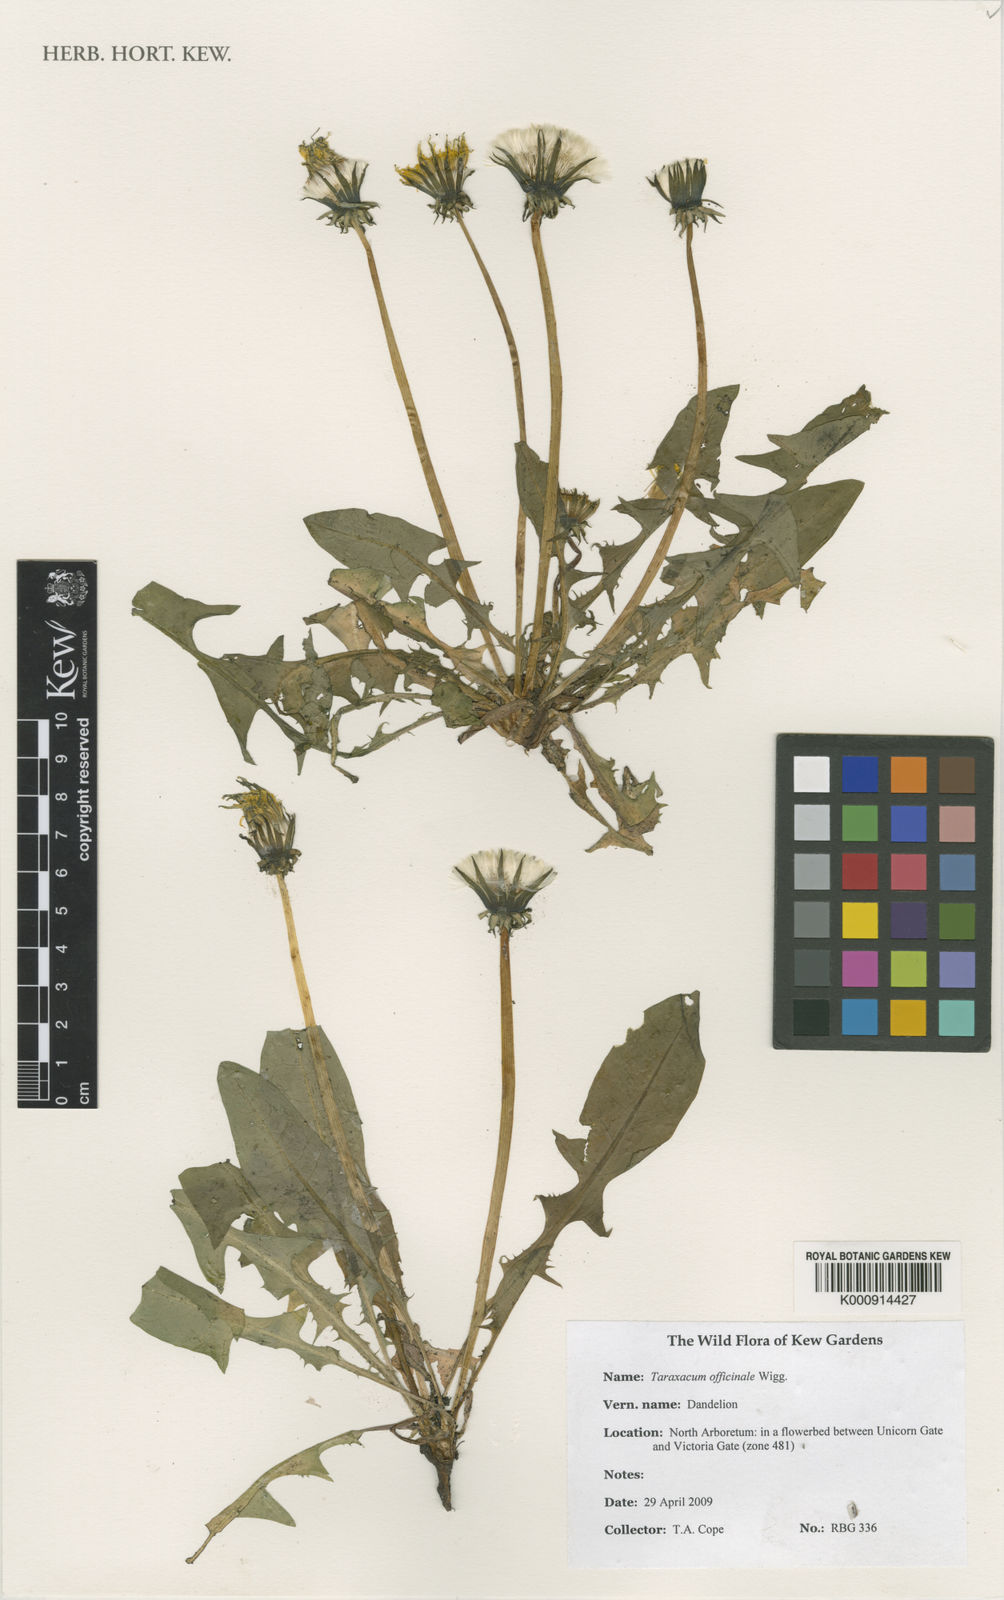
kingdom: Plantae
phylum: Tracheophyta
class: Magnoliopsida
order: Asterales
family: Asteraceae
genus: Taraxacum
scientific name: Taraxacum officinale
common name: Common dandelion
